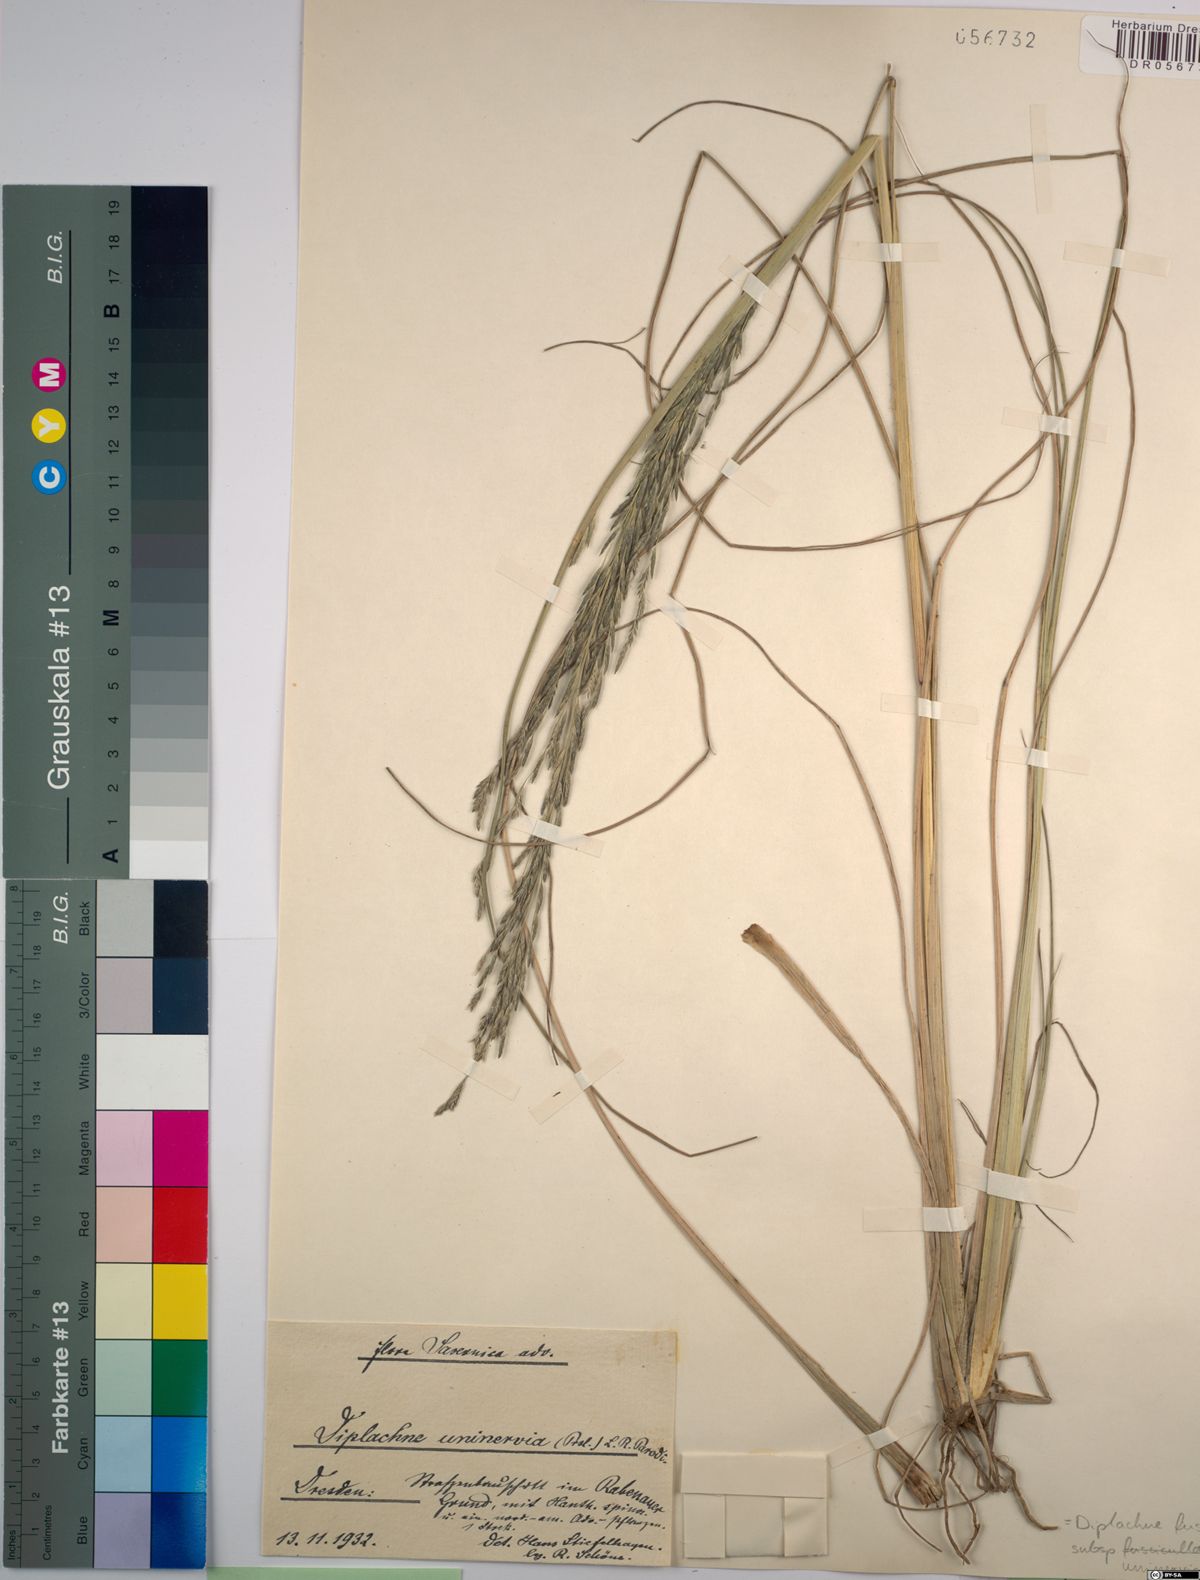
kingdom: Plantae
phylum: Tracheophyta
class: Liliopsida
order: Poales
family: Poaceae
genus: Diplachne
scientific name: Diplachne fusca
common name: Brown beetle grass
